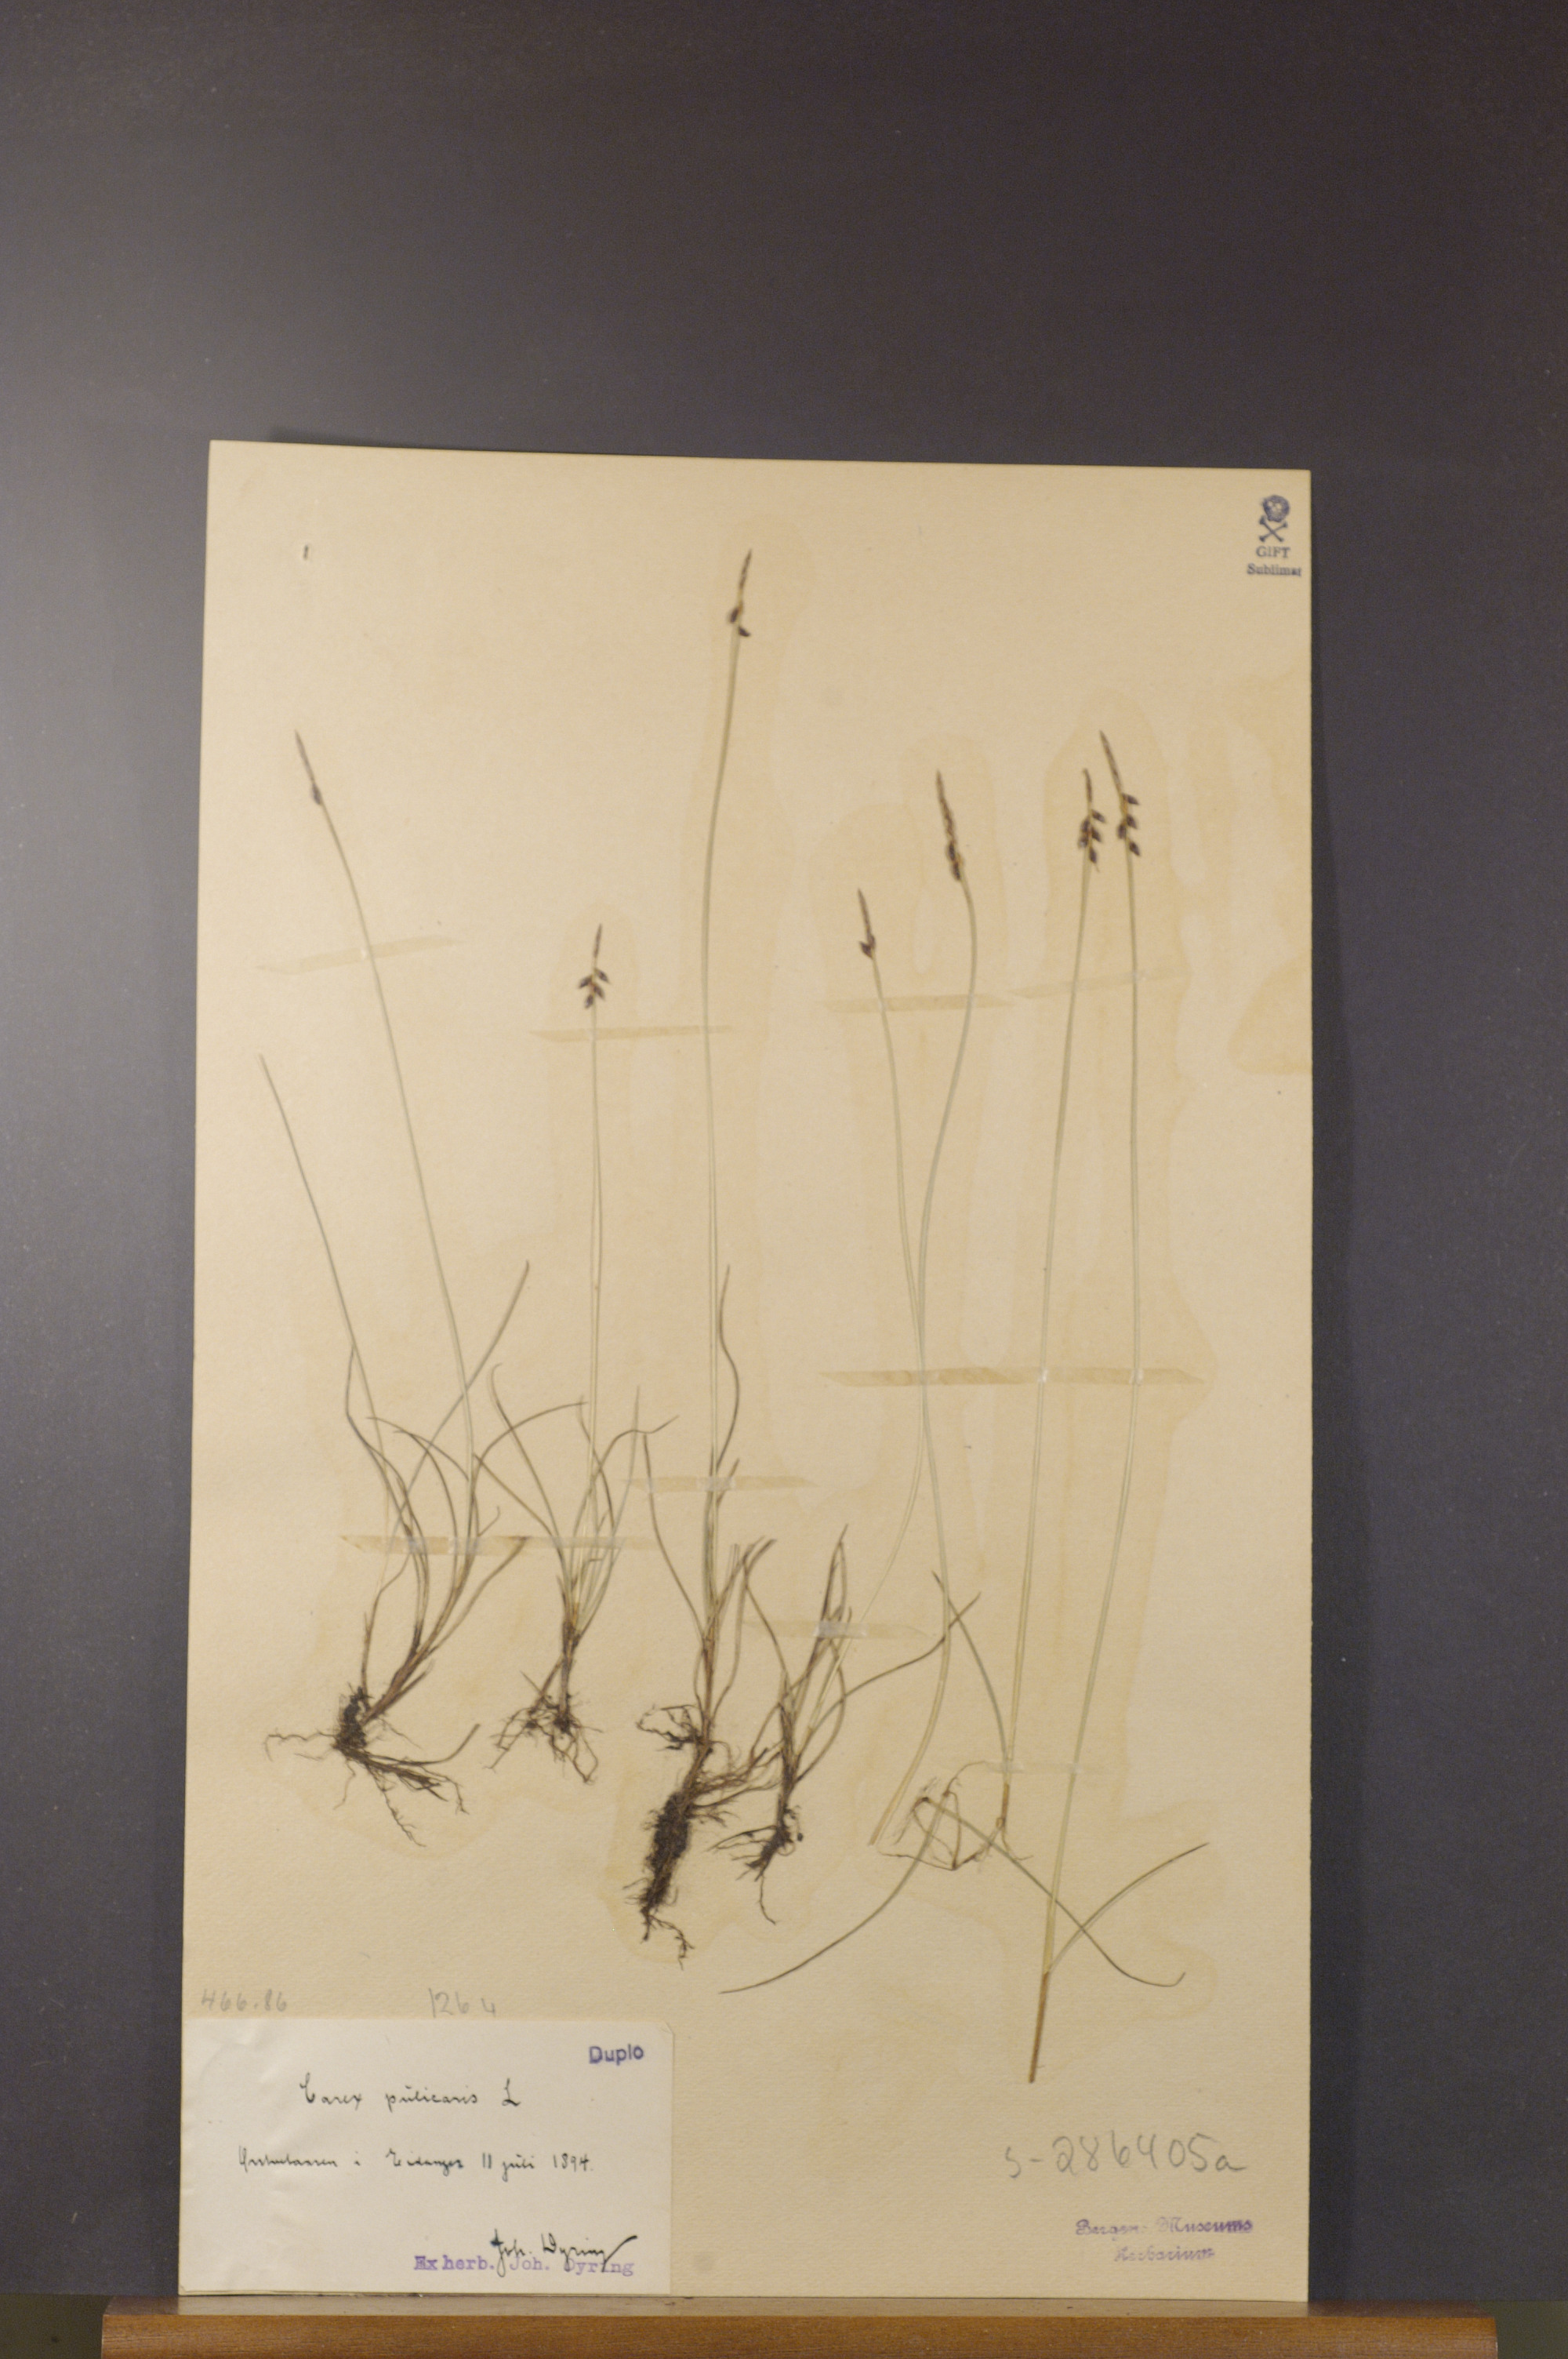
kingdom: Plantae
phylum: Tracheophyta
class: Liliopsida
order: Poales
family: Cyperaceae
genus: Carex
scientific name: Carex pulicaris
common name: Flea sedge
